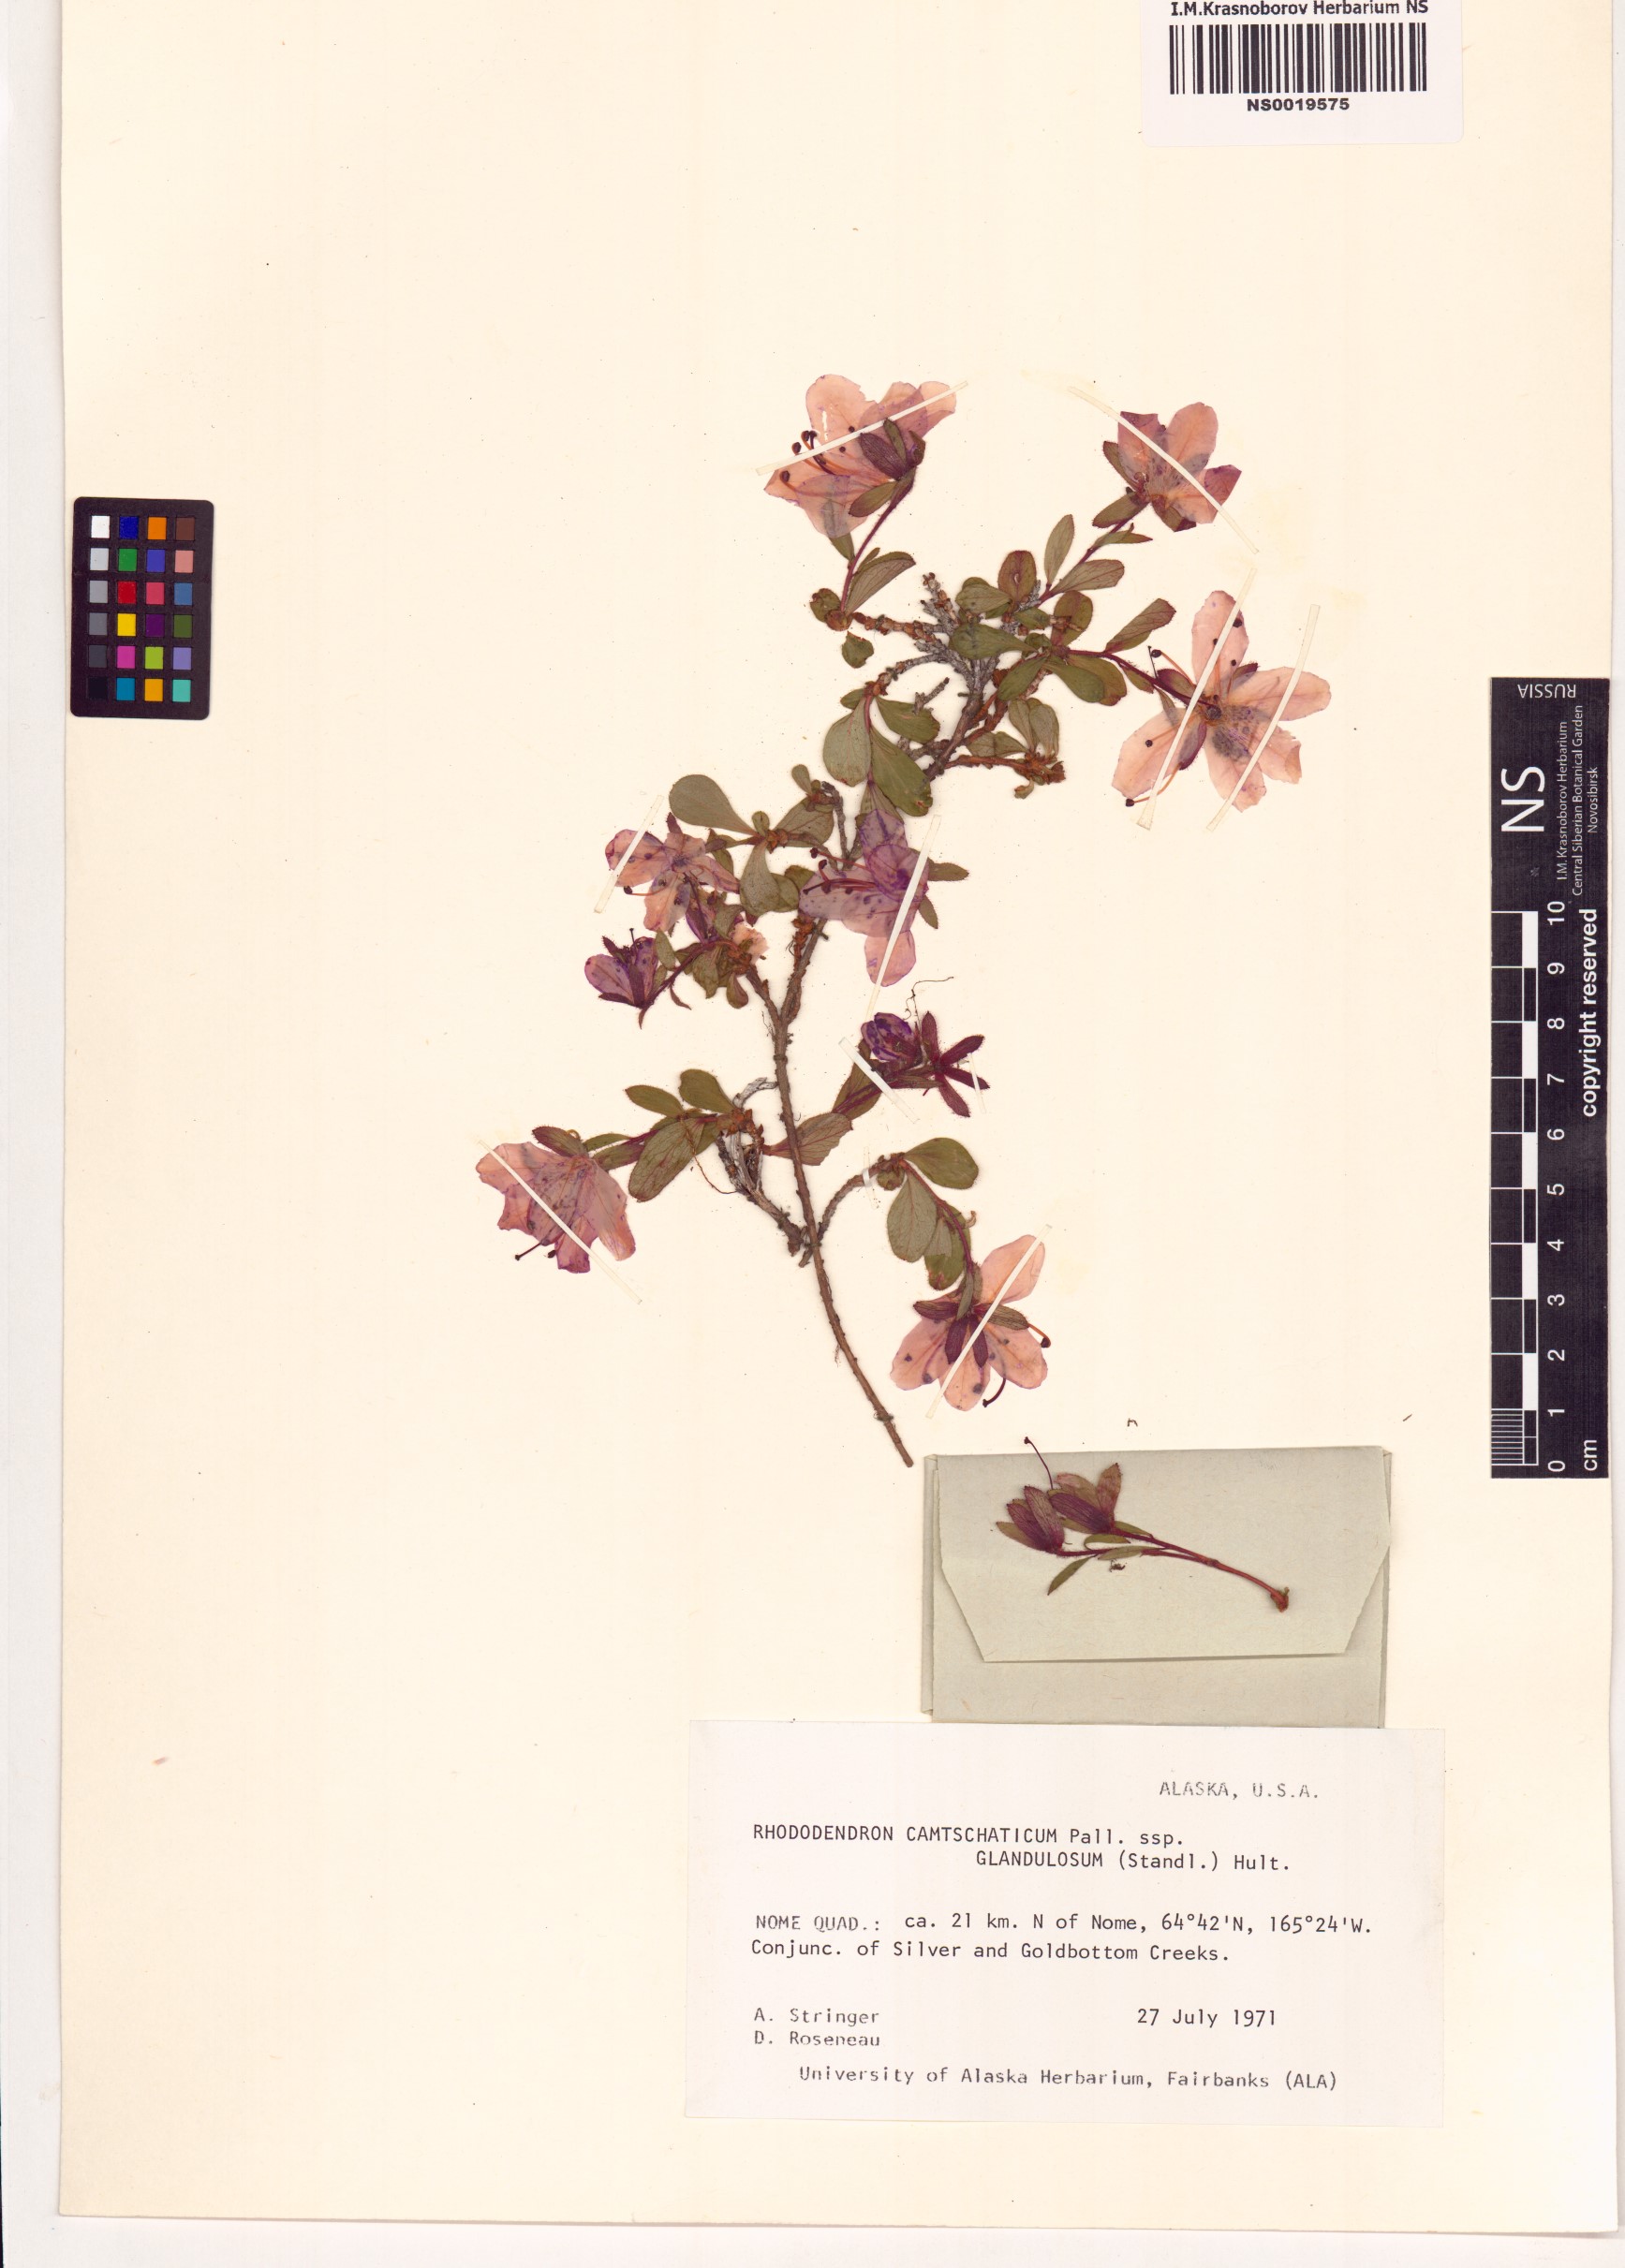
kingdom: Plantae
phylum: Tracheophyta
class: Magnoliopsida
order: Ericales
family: Ericaceae
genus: Rhododendron
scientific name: Rhododendron glandulosum
